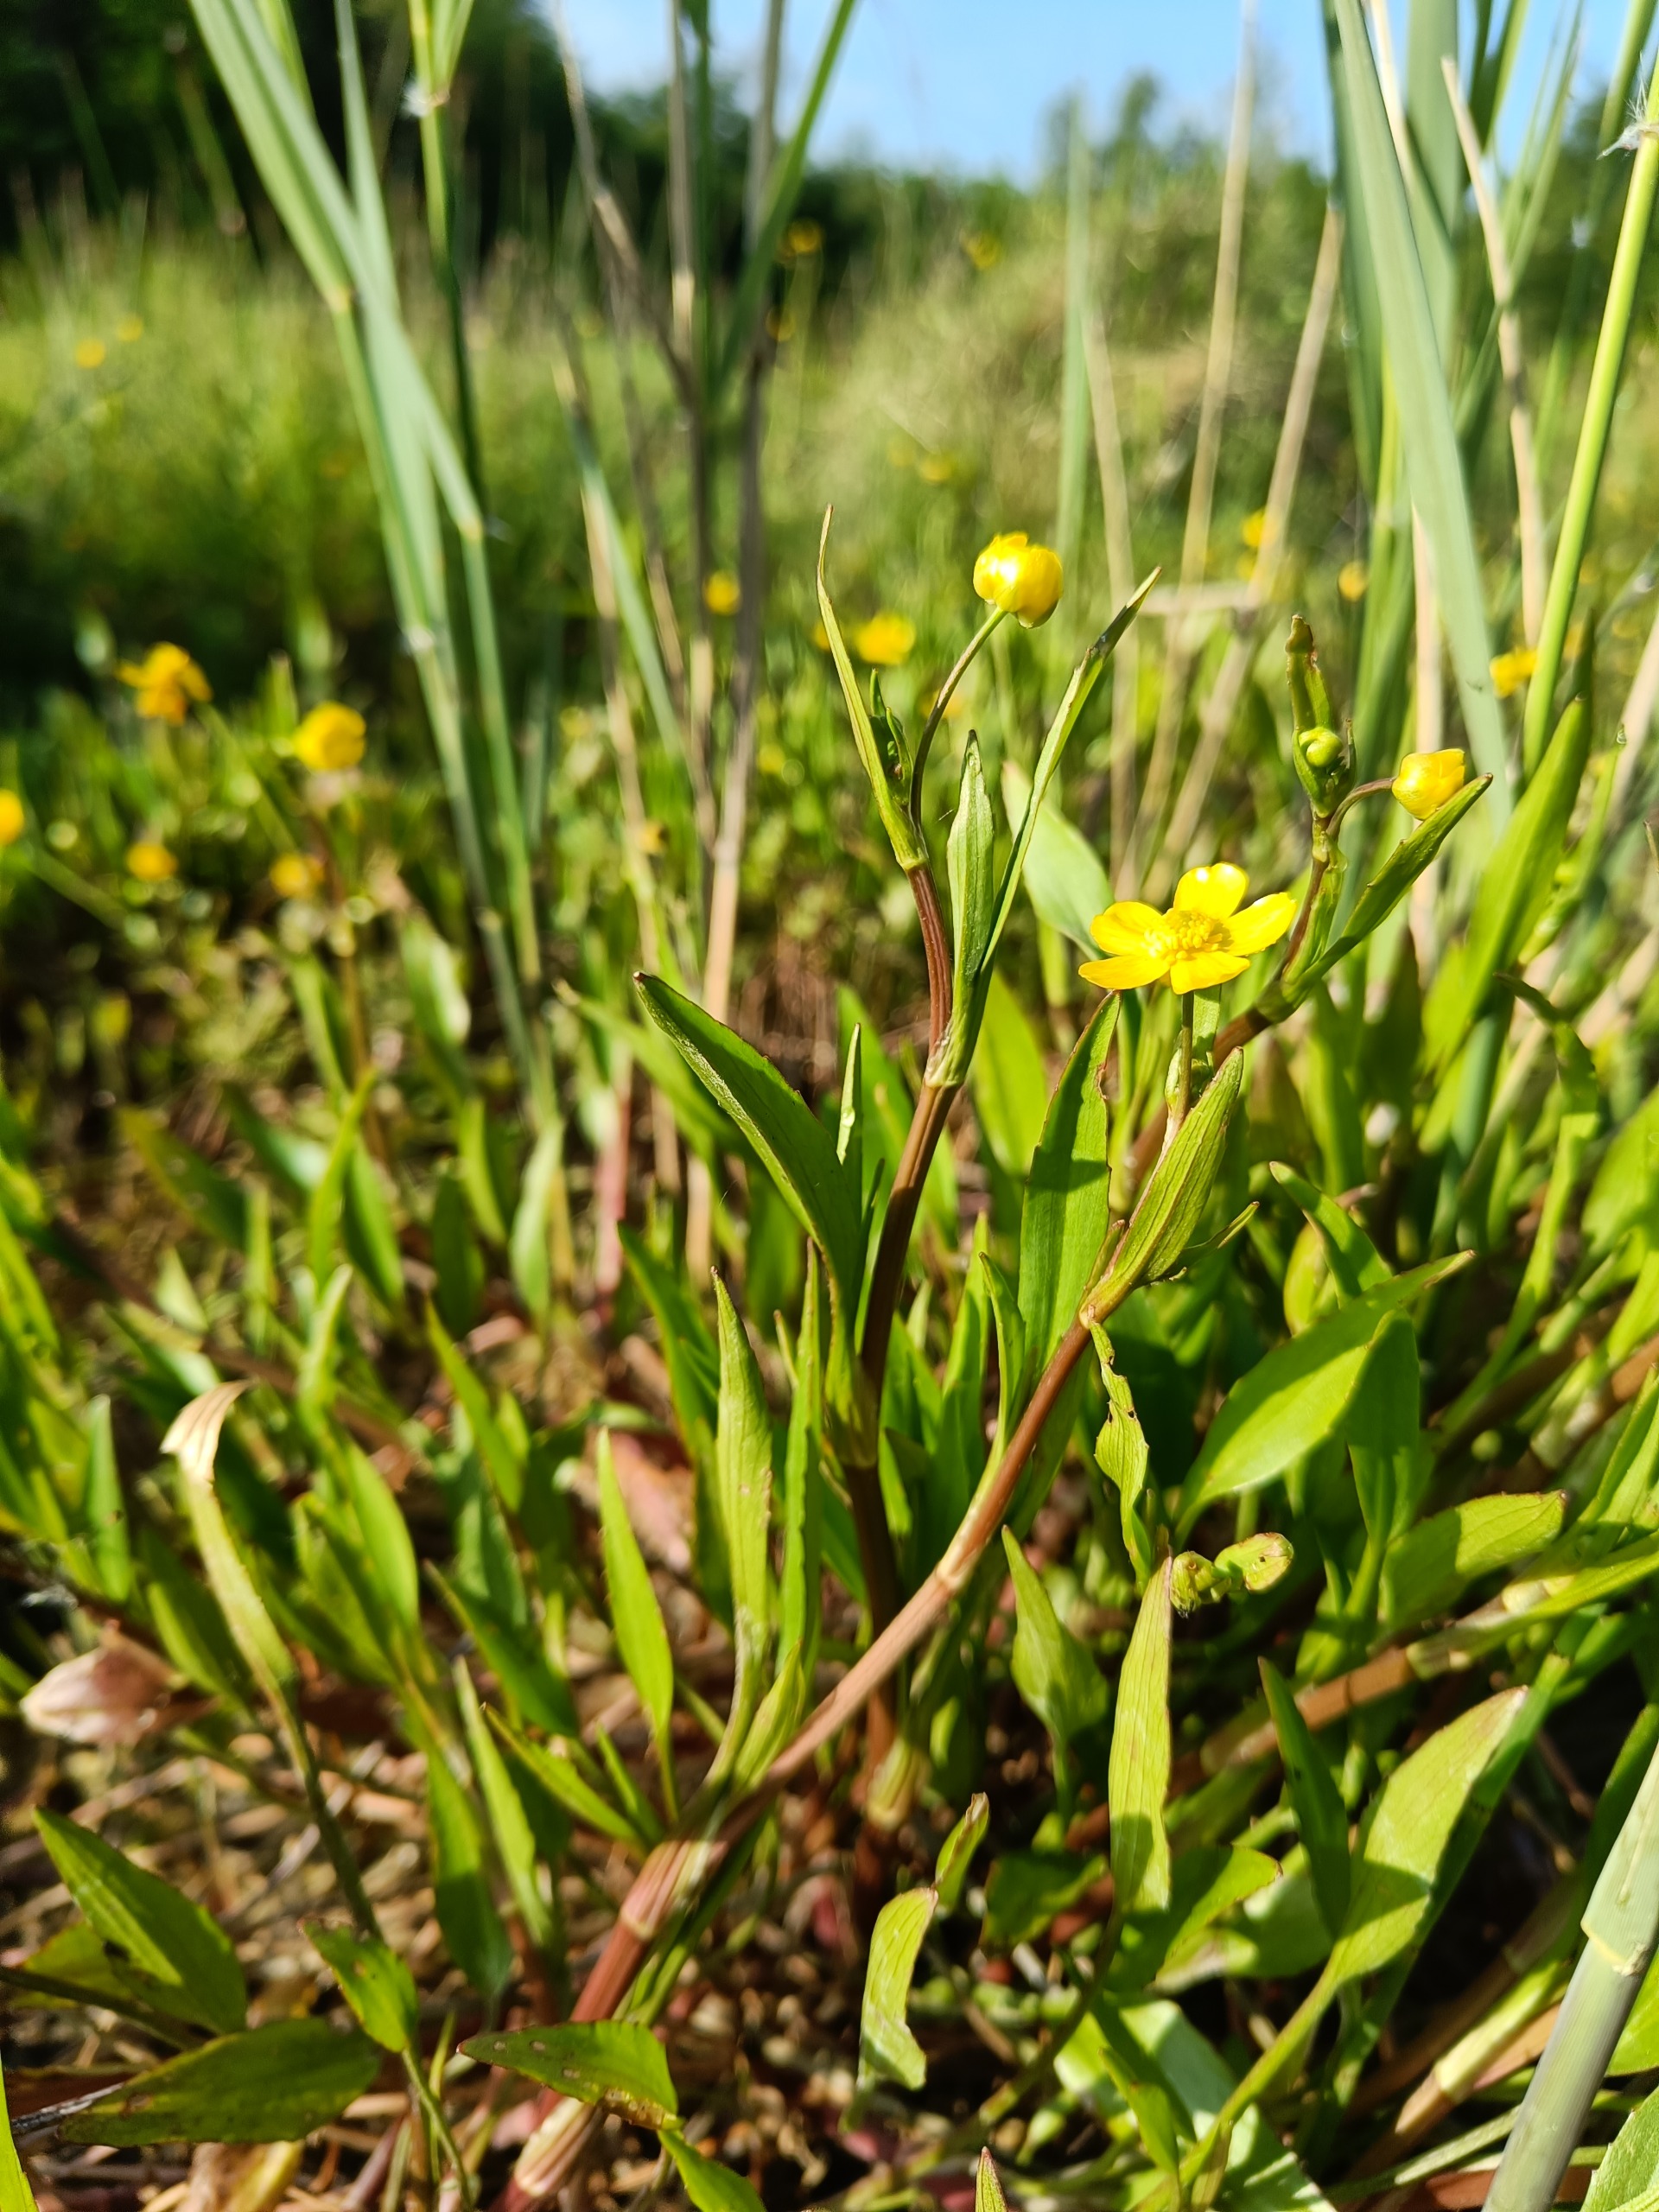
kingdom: Plantae
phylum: Tracheophyta
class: Magnoliopsida
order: Ranunculales
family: Ranunculaceae
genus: Ranunculus
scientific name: Ranunculus flammula
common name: Kær-ranunkel
